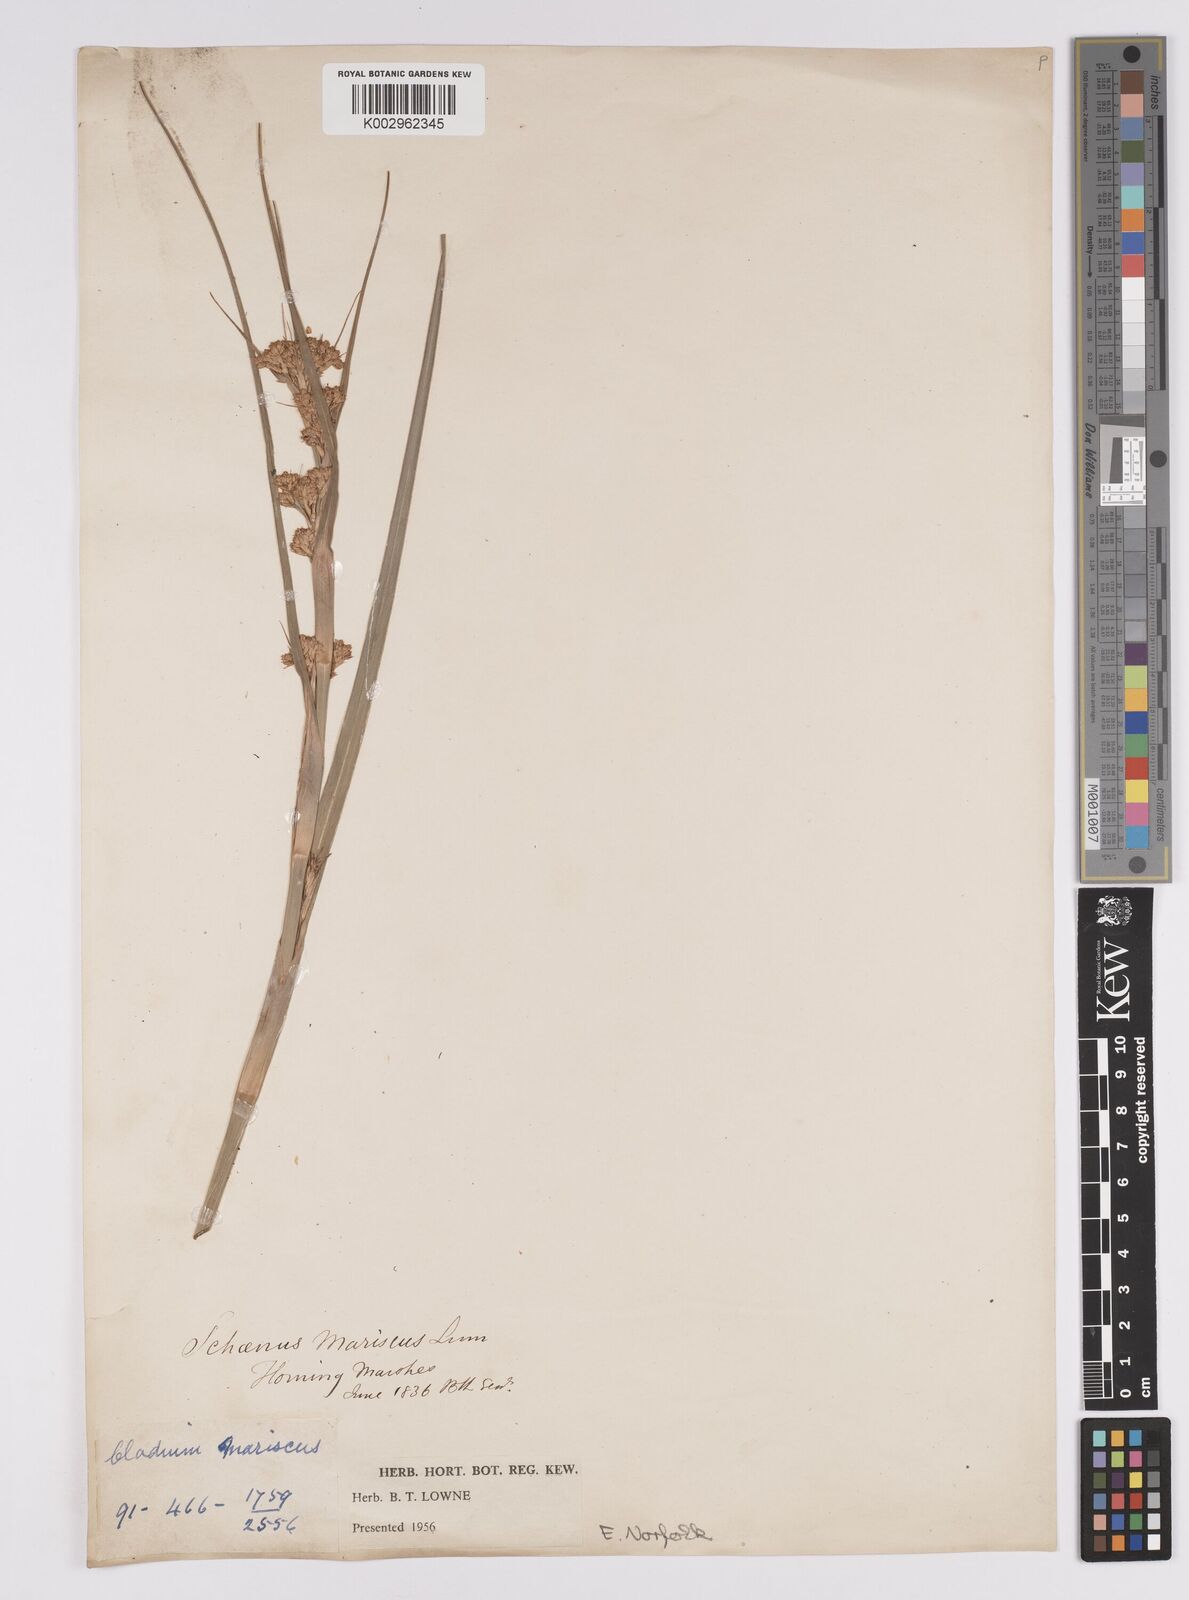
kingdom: Plantae
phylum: Tracheophyta
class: Liliopsida
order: Poales
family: Cyperaceae
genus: Cladium
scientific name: Cladium mariscus
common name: Great fen-sedge
